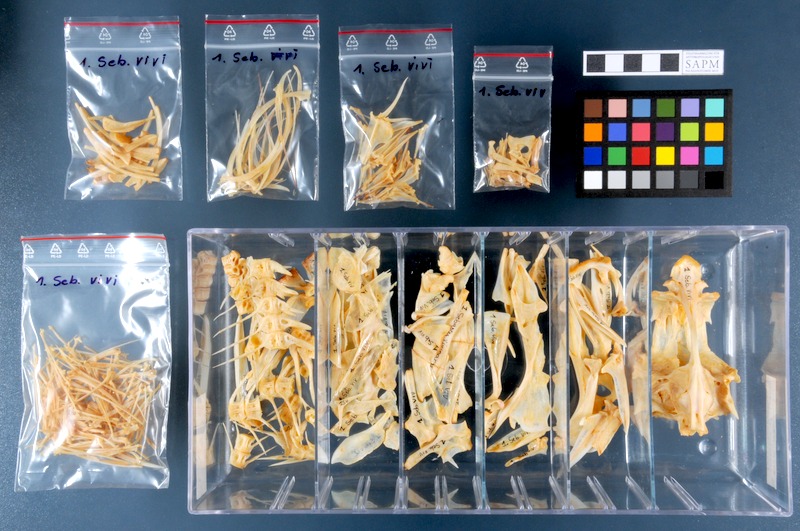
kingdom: Animalia
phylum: Chordata
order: Scorpaeniformes
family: Sebastidae
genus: Sebastes
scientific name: Sebastes viviparus
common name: Norway haddock
